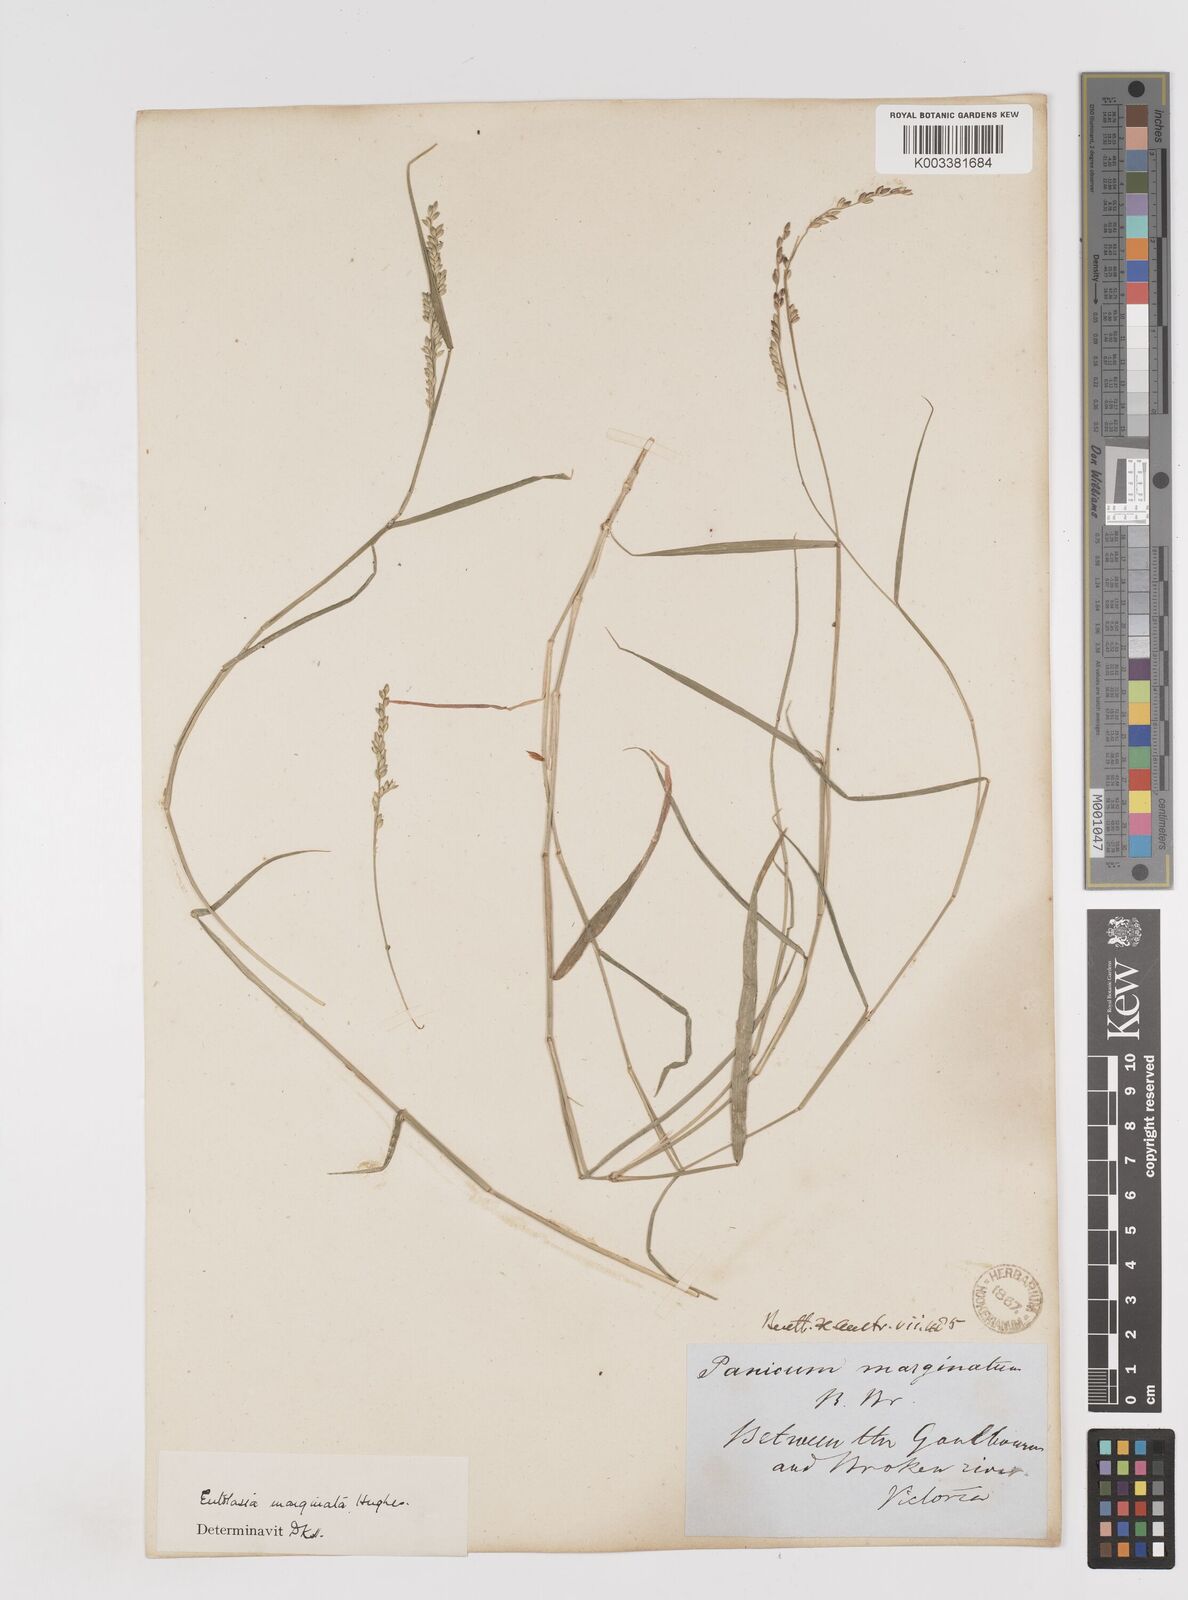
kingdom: Plantae
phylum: Tracheophyta
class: Liliopsida
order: Poales
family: Poaceae
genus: Entolasia
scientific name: Entolasia marginata
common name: Australian panicgrass
